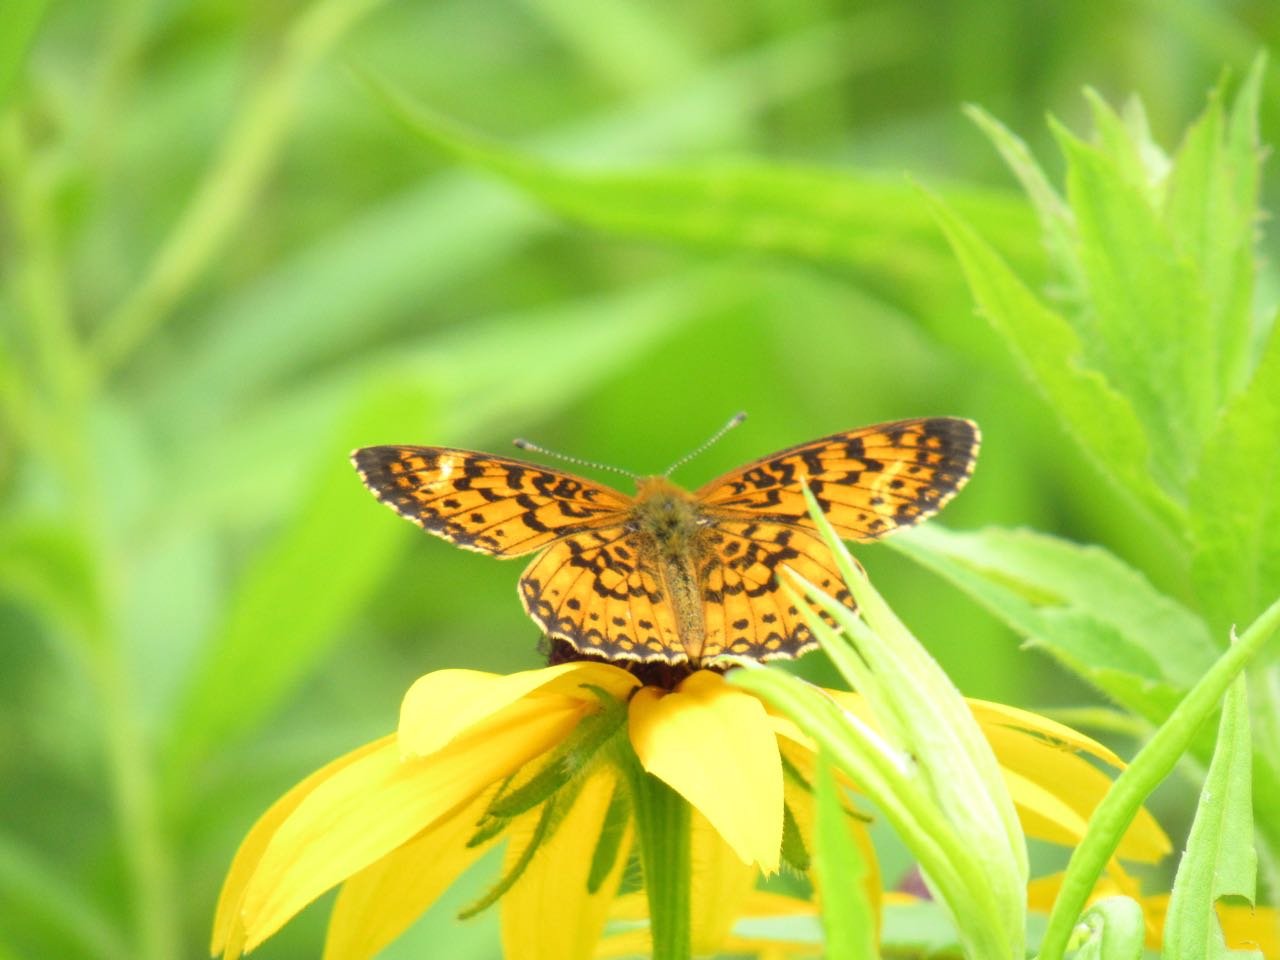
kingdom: Animalia
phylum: Arthropoda
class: Insecta
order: Lepidoptera
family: Nymphalidae
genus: Boloria
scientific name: Boloria selene
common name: Silver-bordered Fritillary
